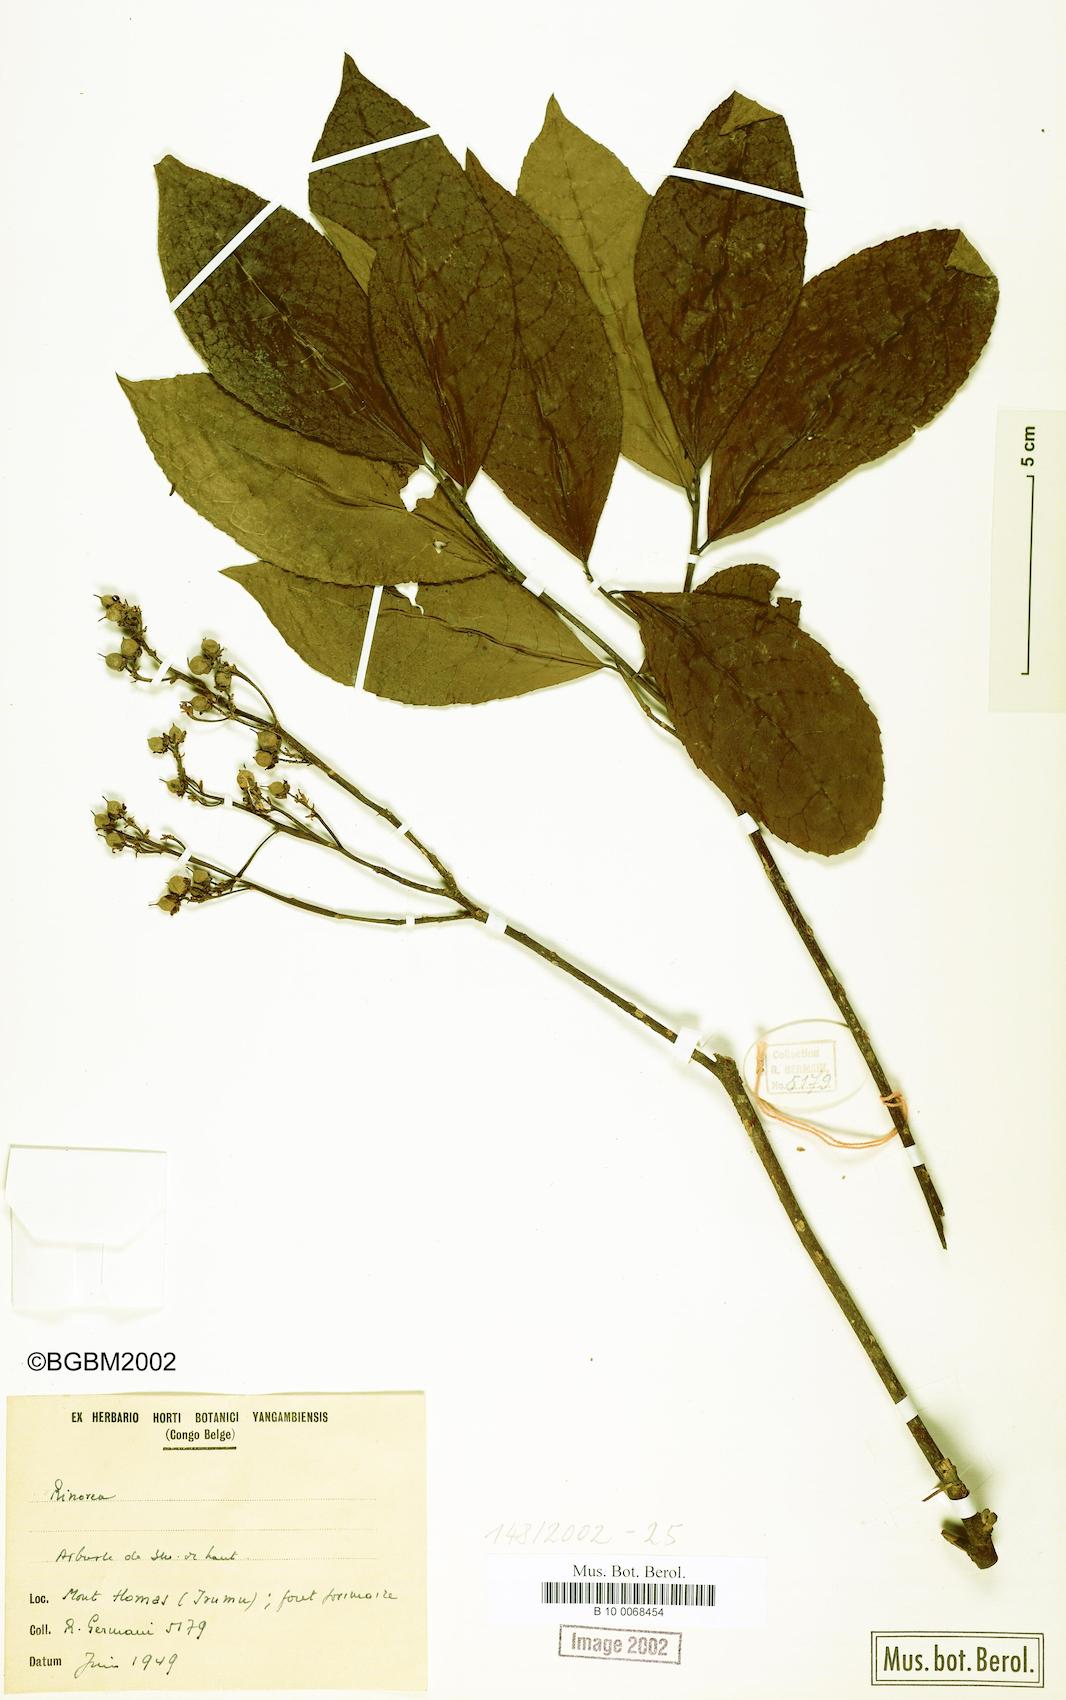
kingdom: Plantae
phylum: Tracheophyta
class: Magnoliopsida
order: Malpighiales
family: Violaceae
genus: Rinorea
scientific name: Rinorea
